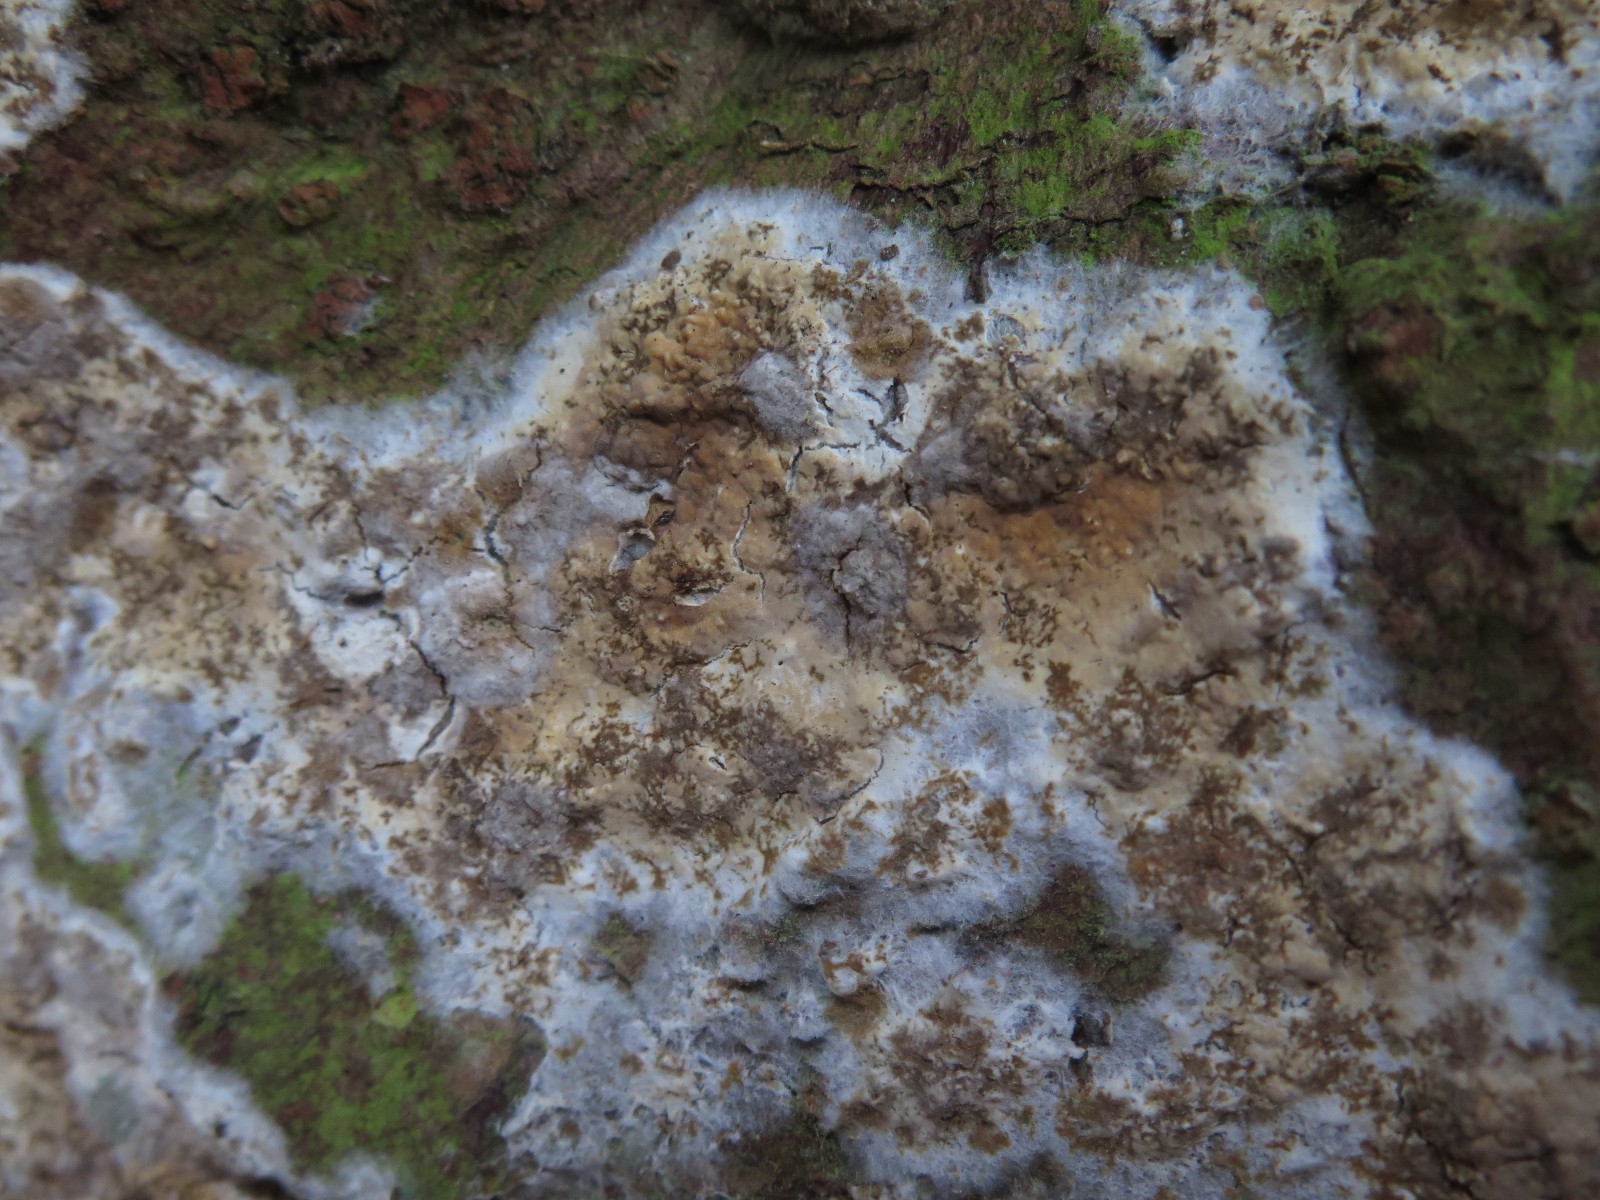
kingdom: Fungi
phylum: Basidiomycota
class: Agaricomycetes
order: Boletales
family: Coniophoraceae
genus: Coniophora
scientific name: Coniophora puteana
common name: gul tømmersvamp
